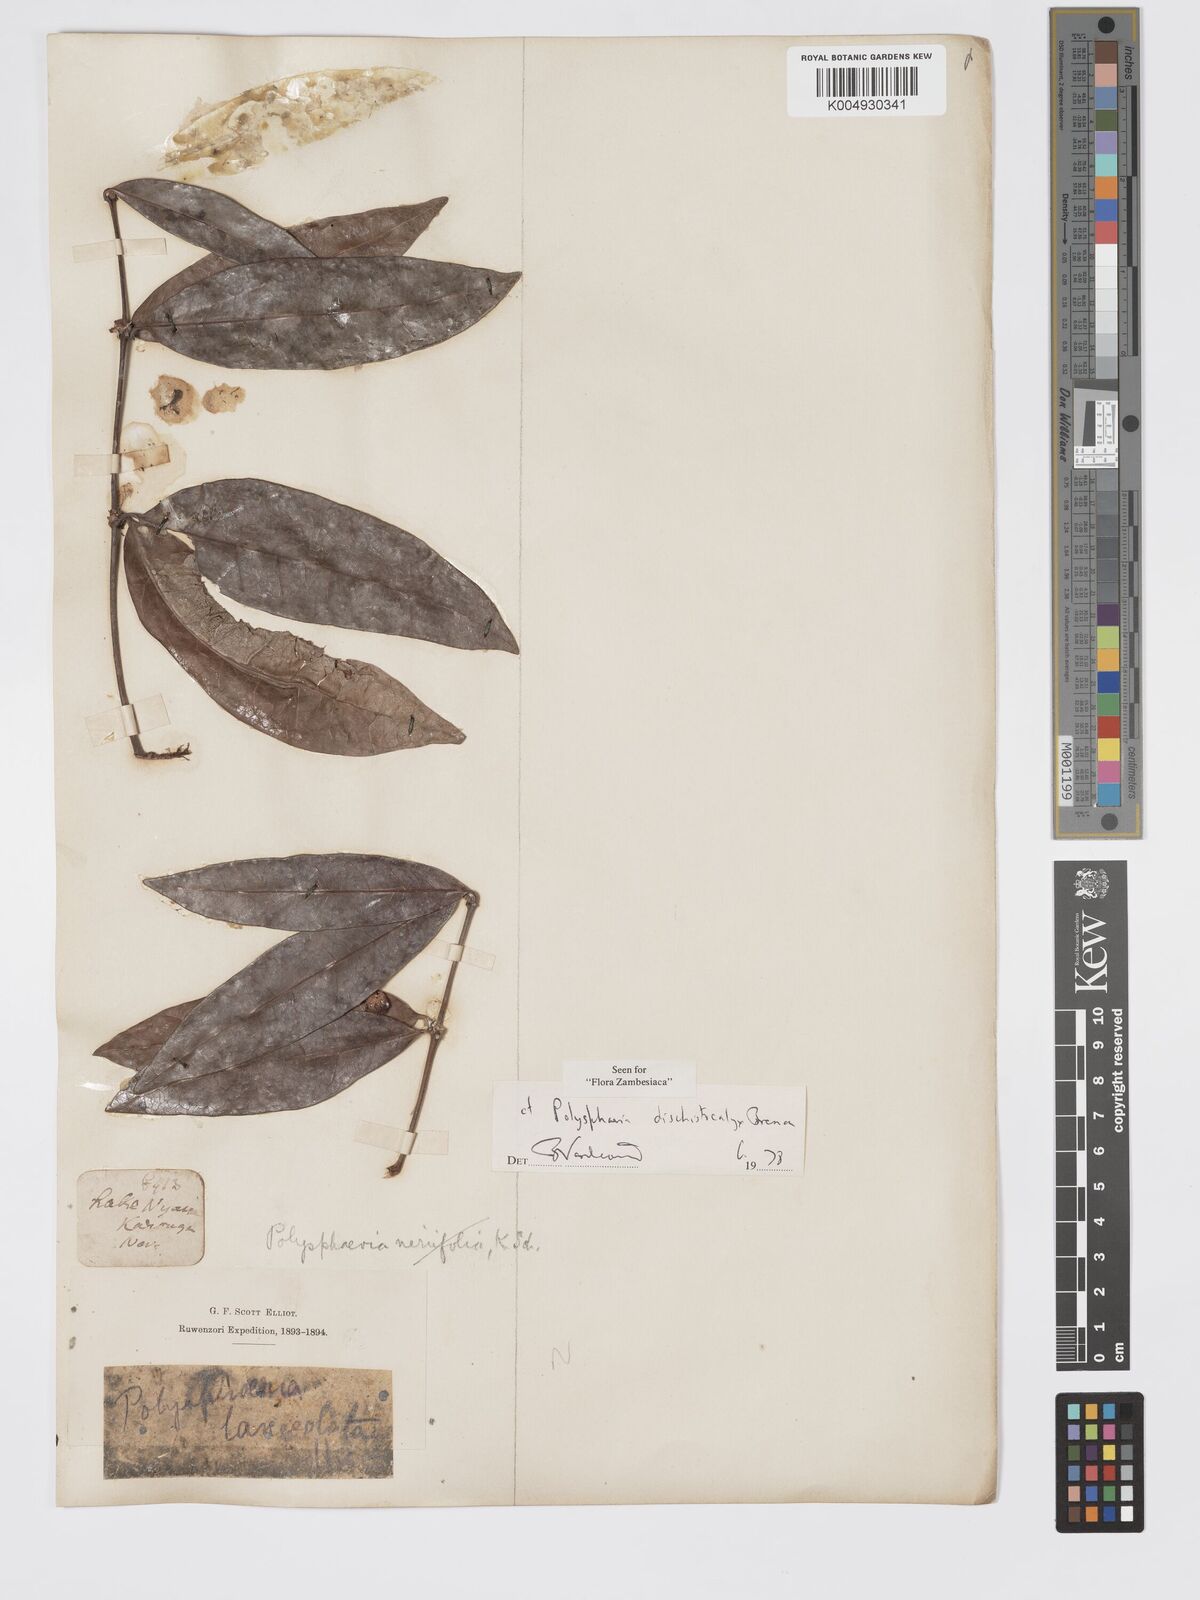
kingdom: Plantae
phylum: Tracheophyta
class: Magnoliopsida
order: Gentianales
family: Rubiaceae
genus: Polysphaeria
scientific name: Polysphaeria dischistocalyx
